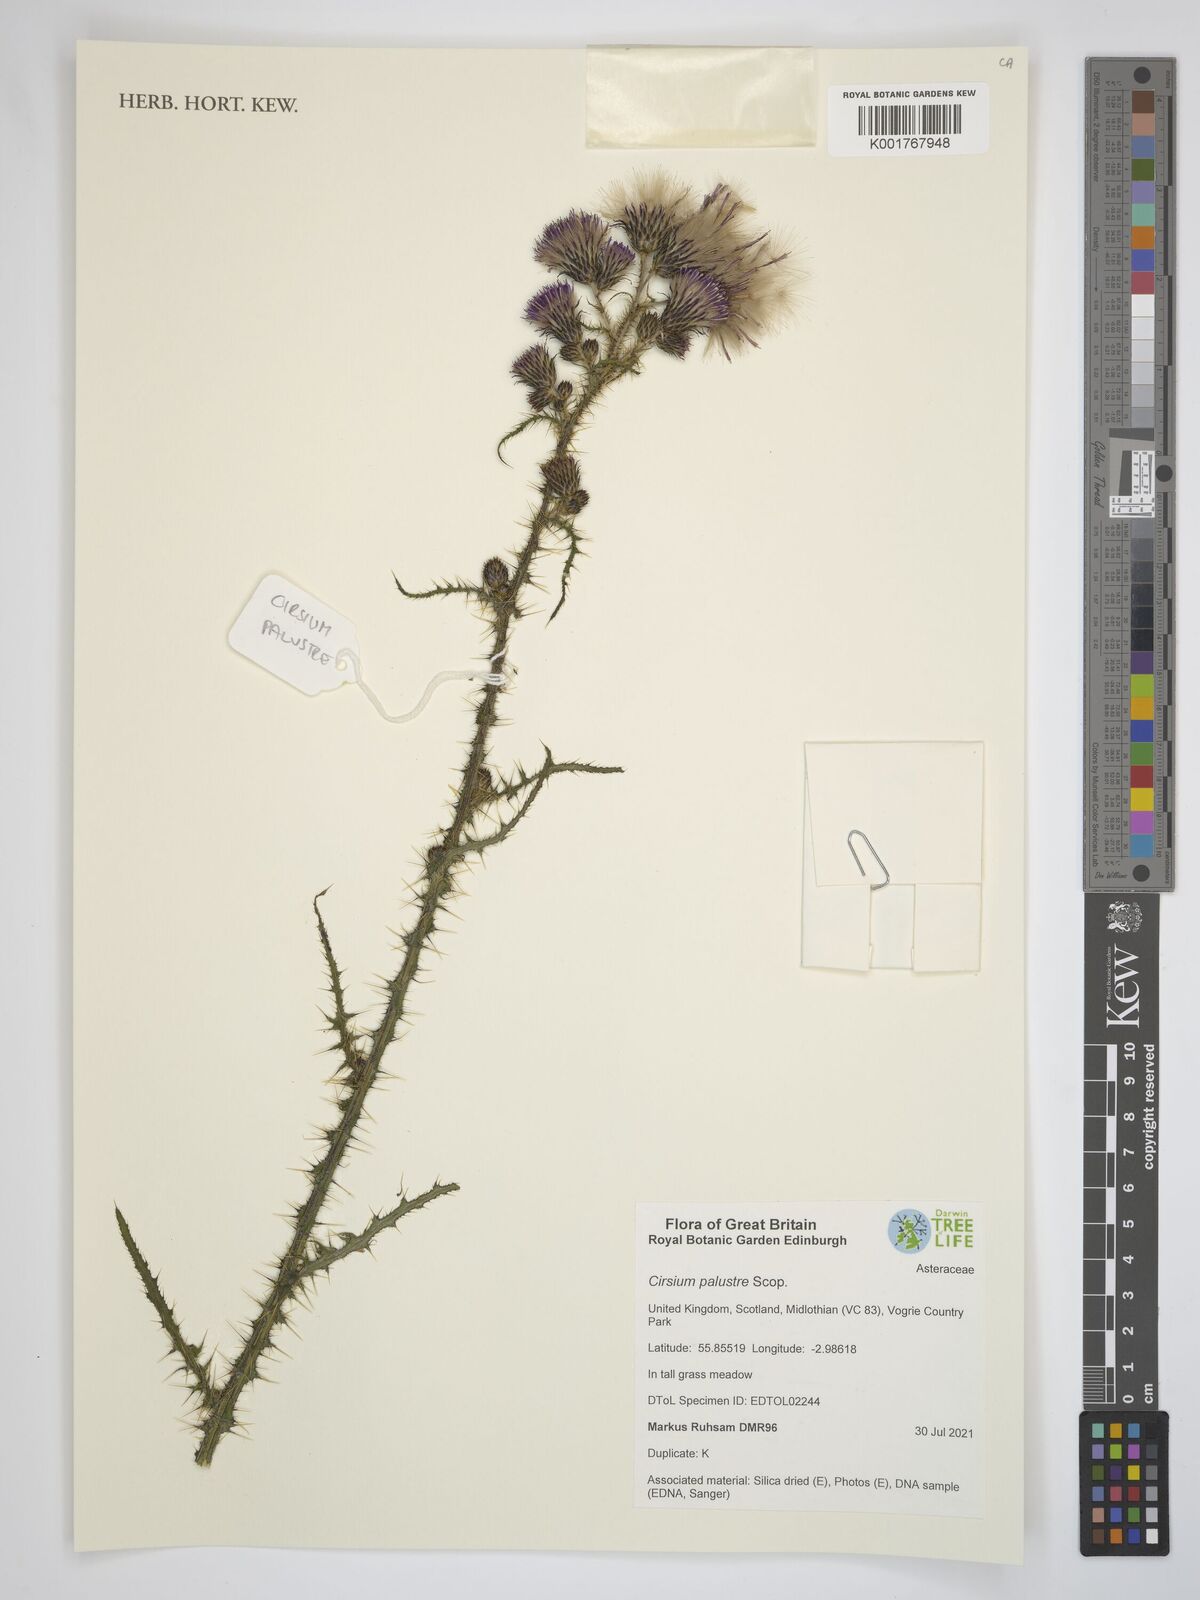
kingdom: Plantae
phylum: Tracheophyta
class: Magnoliopsida
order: Asterales
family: Asteraceae
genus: Cirsium
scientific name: Cirsium palustre
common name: Marsh thistle
